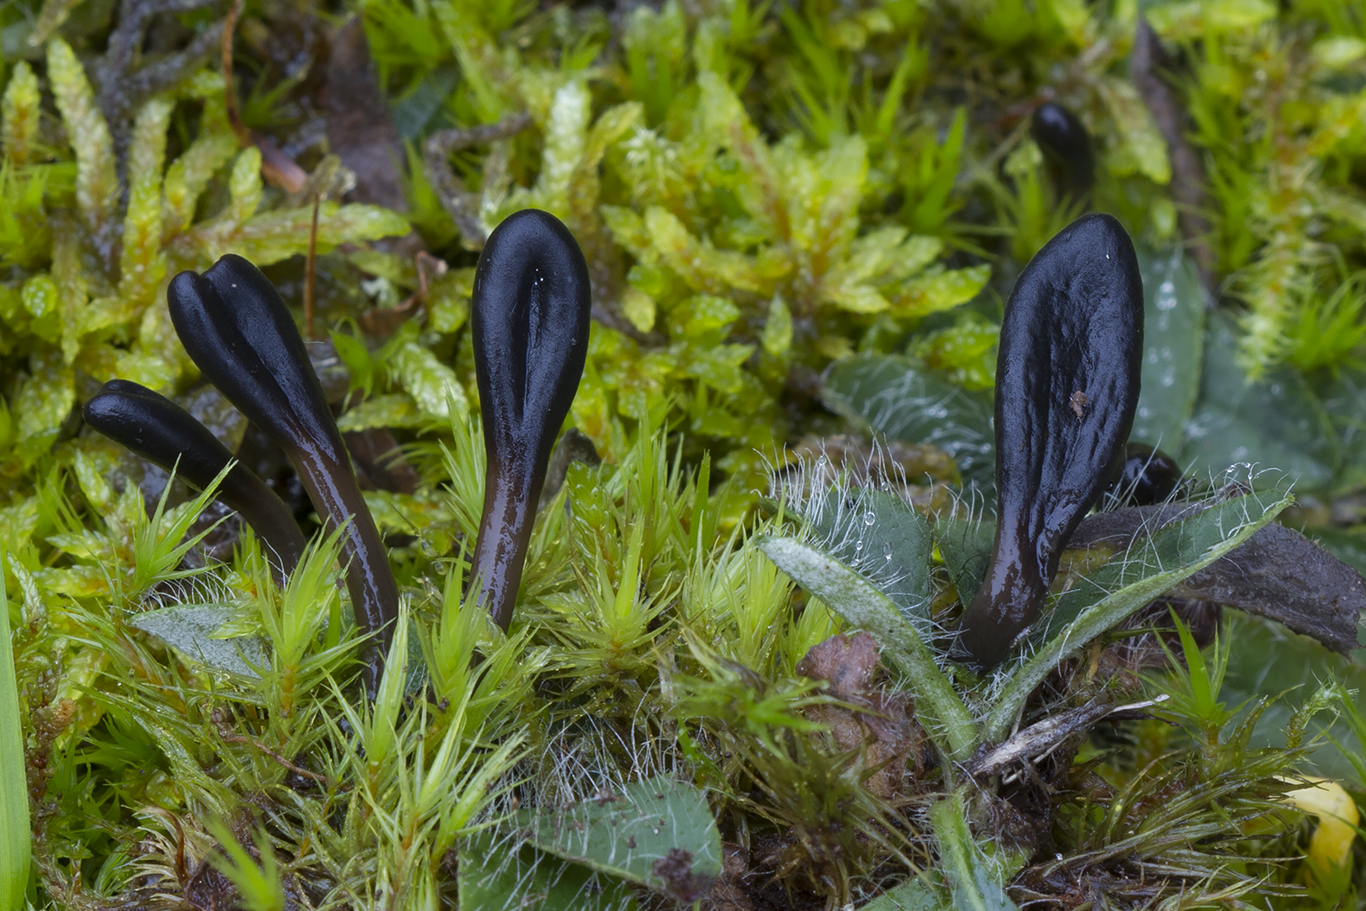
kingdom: Fungi
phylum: Ascomycota
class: Geoglossomycetes
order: Geoglossales
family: Geoglossaceae
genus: Glutinoglossum
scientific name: Glutinoglossum glutinosum
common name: slimet jordtunge
